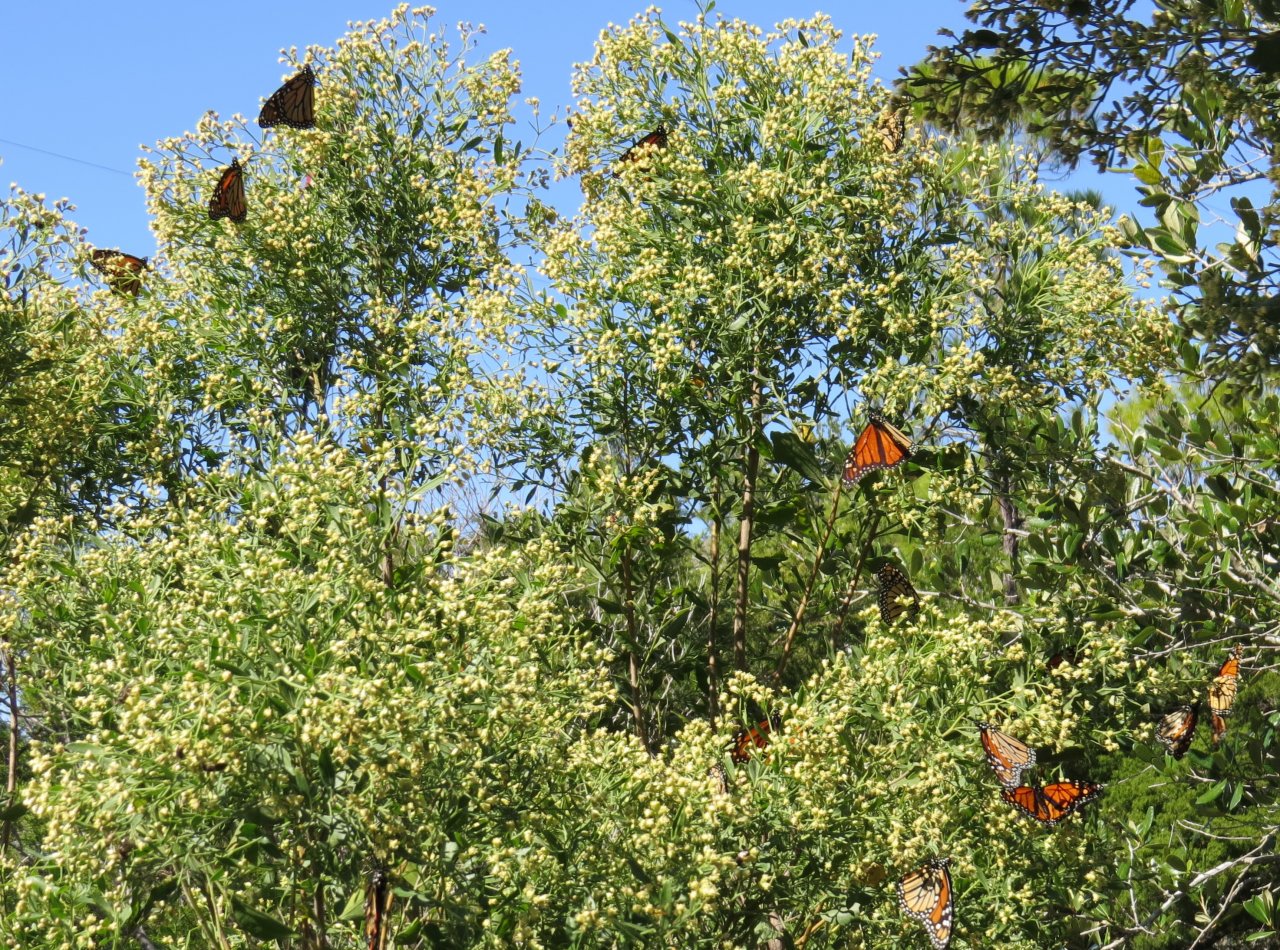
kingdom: Animalia
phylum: Arthropoda
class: Insecta
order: Lepidoptera
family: Nymphalidae
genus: Danaus
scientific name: Danaus plexippus
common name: Monarch
